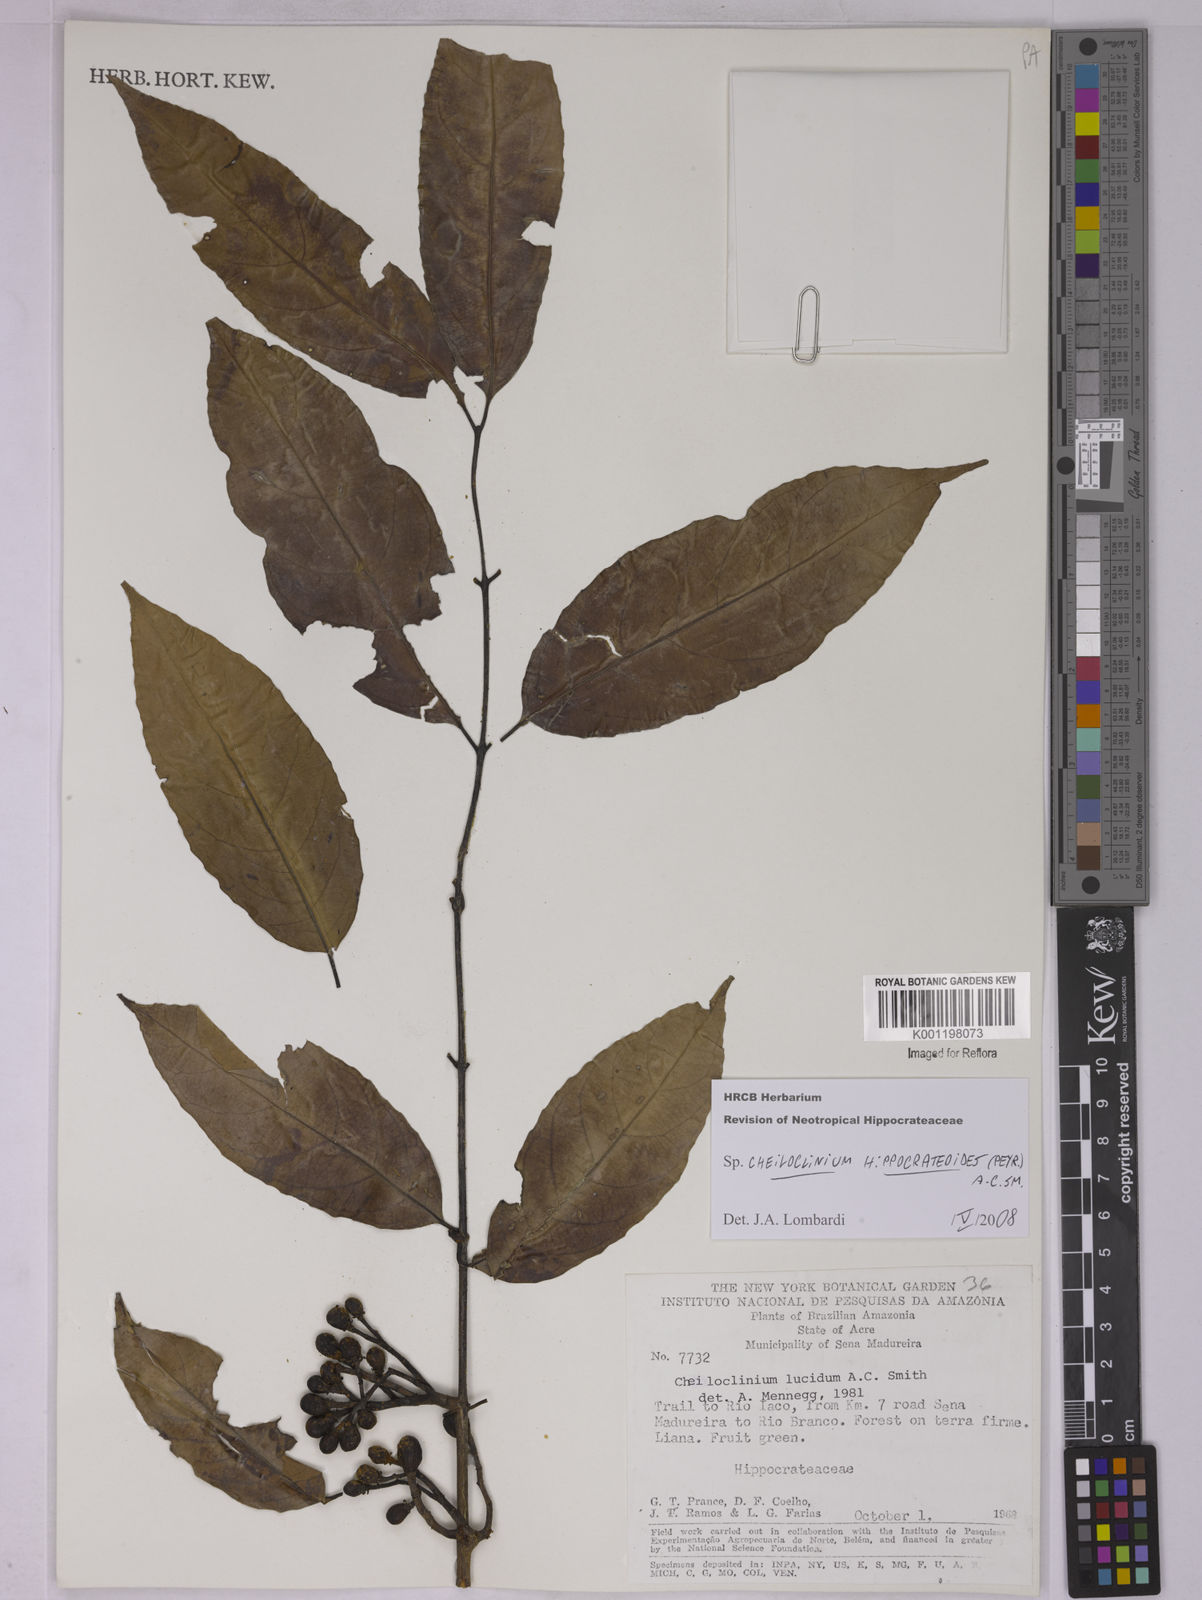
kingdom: Plantae
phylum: Tracheophyta
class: Magnoliopsida
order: Celastrales
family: Celastraceae
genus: Cheiloclinium
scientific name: Cheiloclinium hippocrateoides
